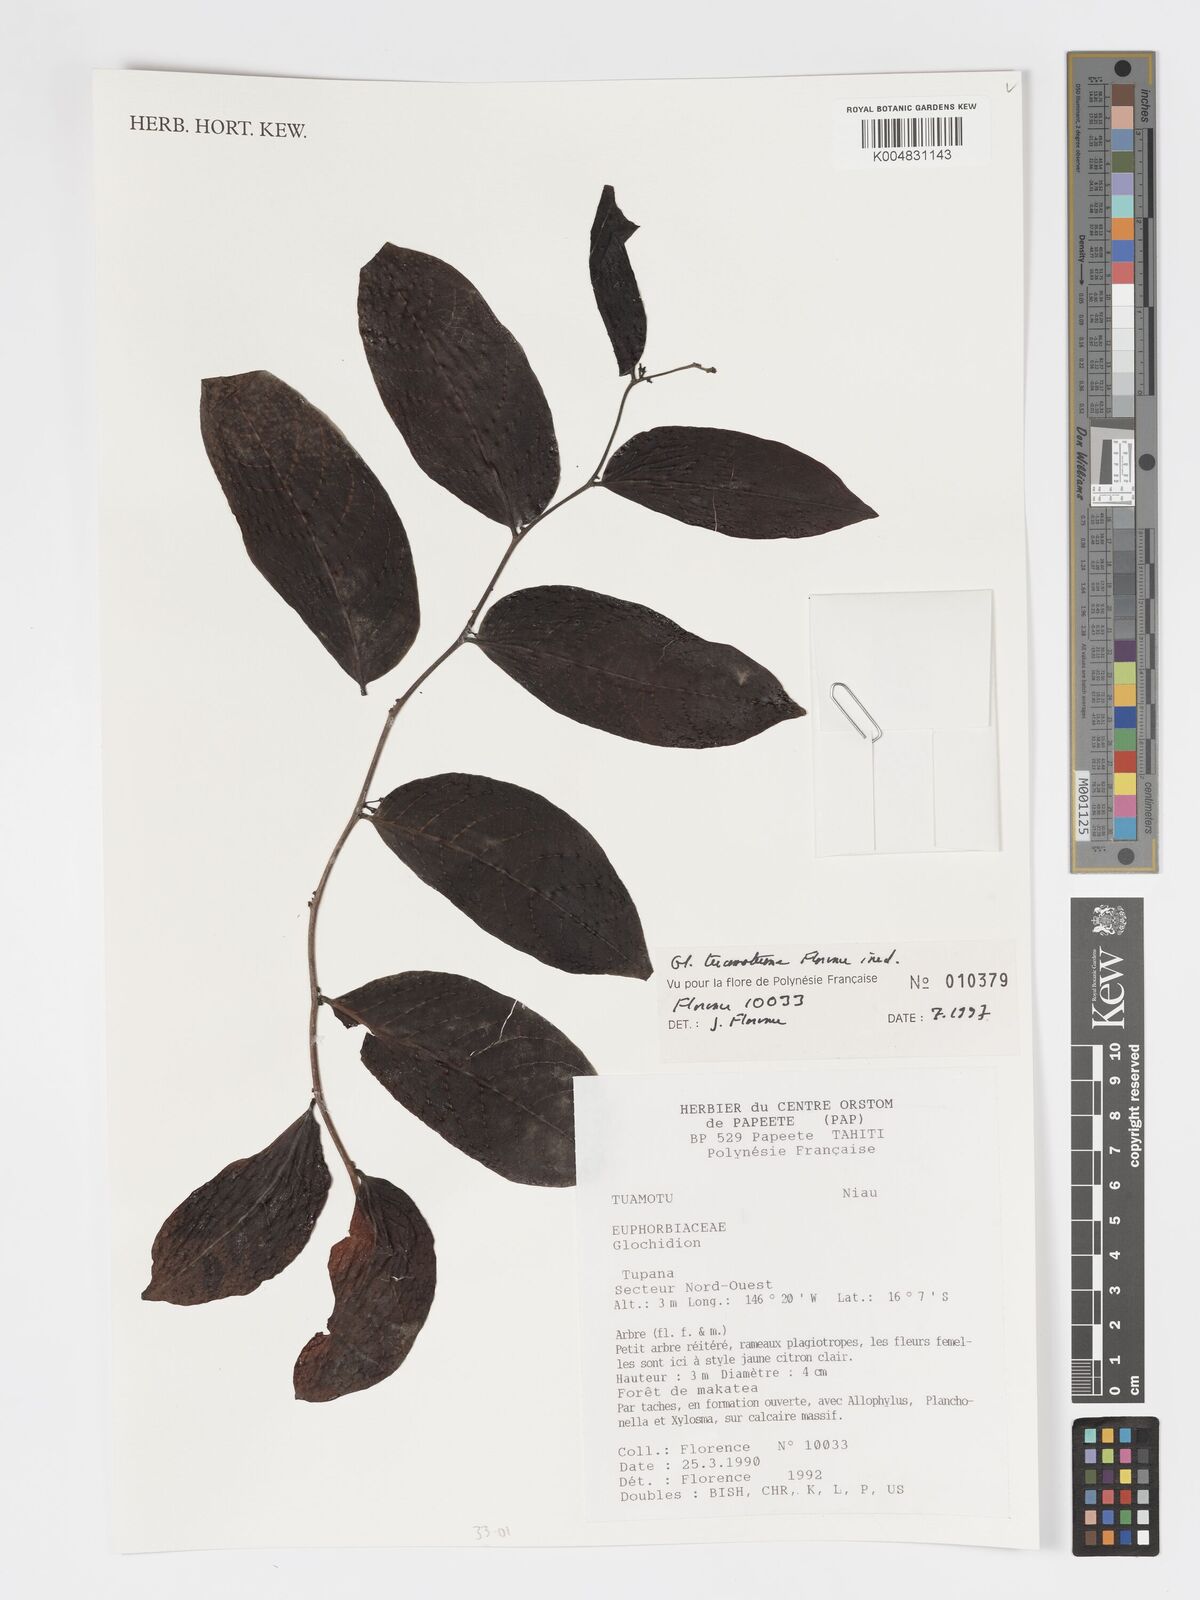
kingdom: Plantae
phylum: Tracheophyta
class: Magnoliopsida
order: Malpighiales
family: Phyllanthaceae
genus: Glochidion
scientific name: Glochidion tuamotuense
